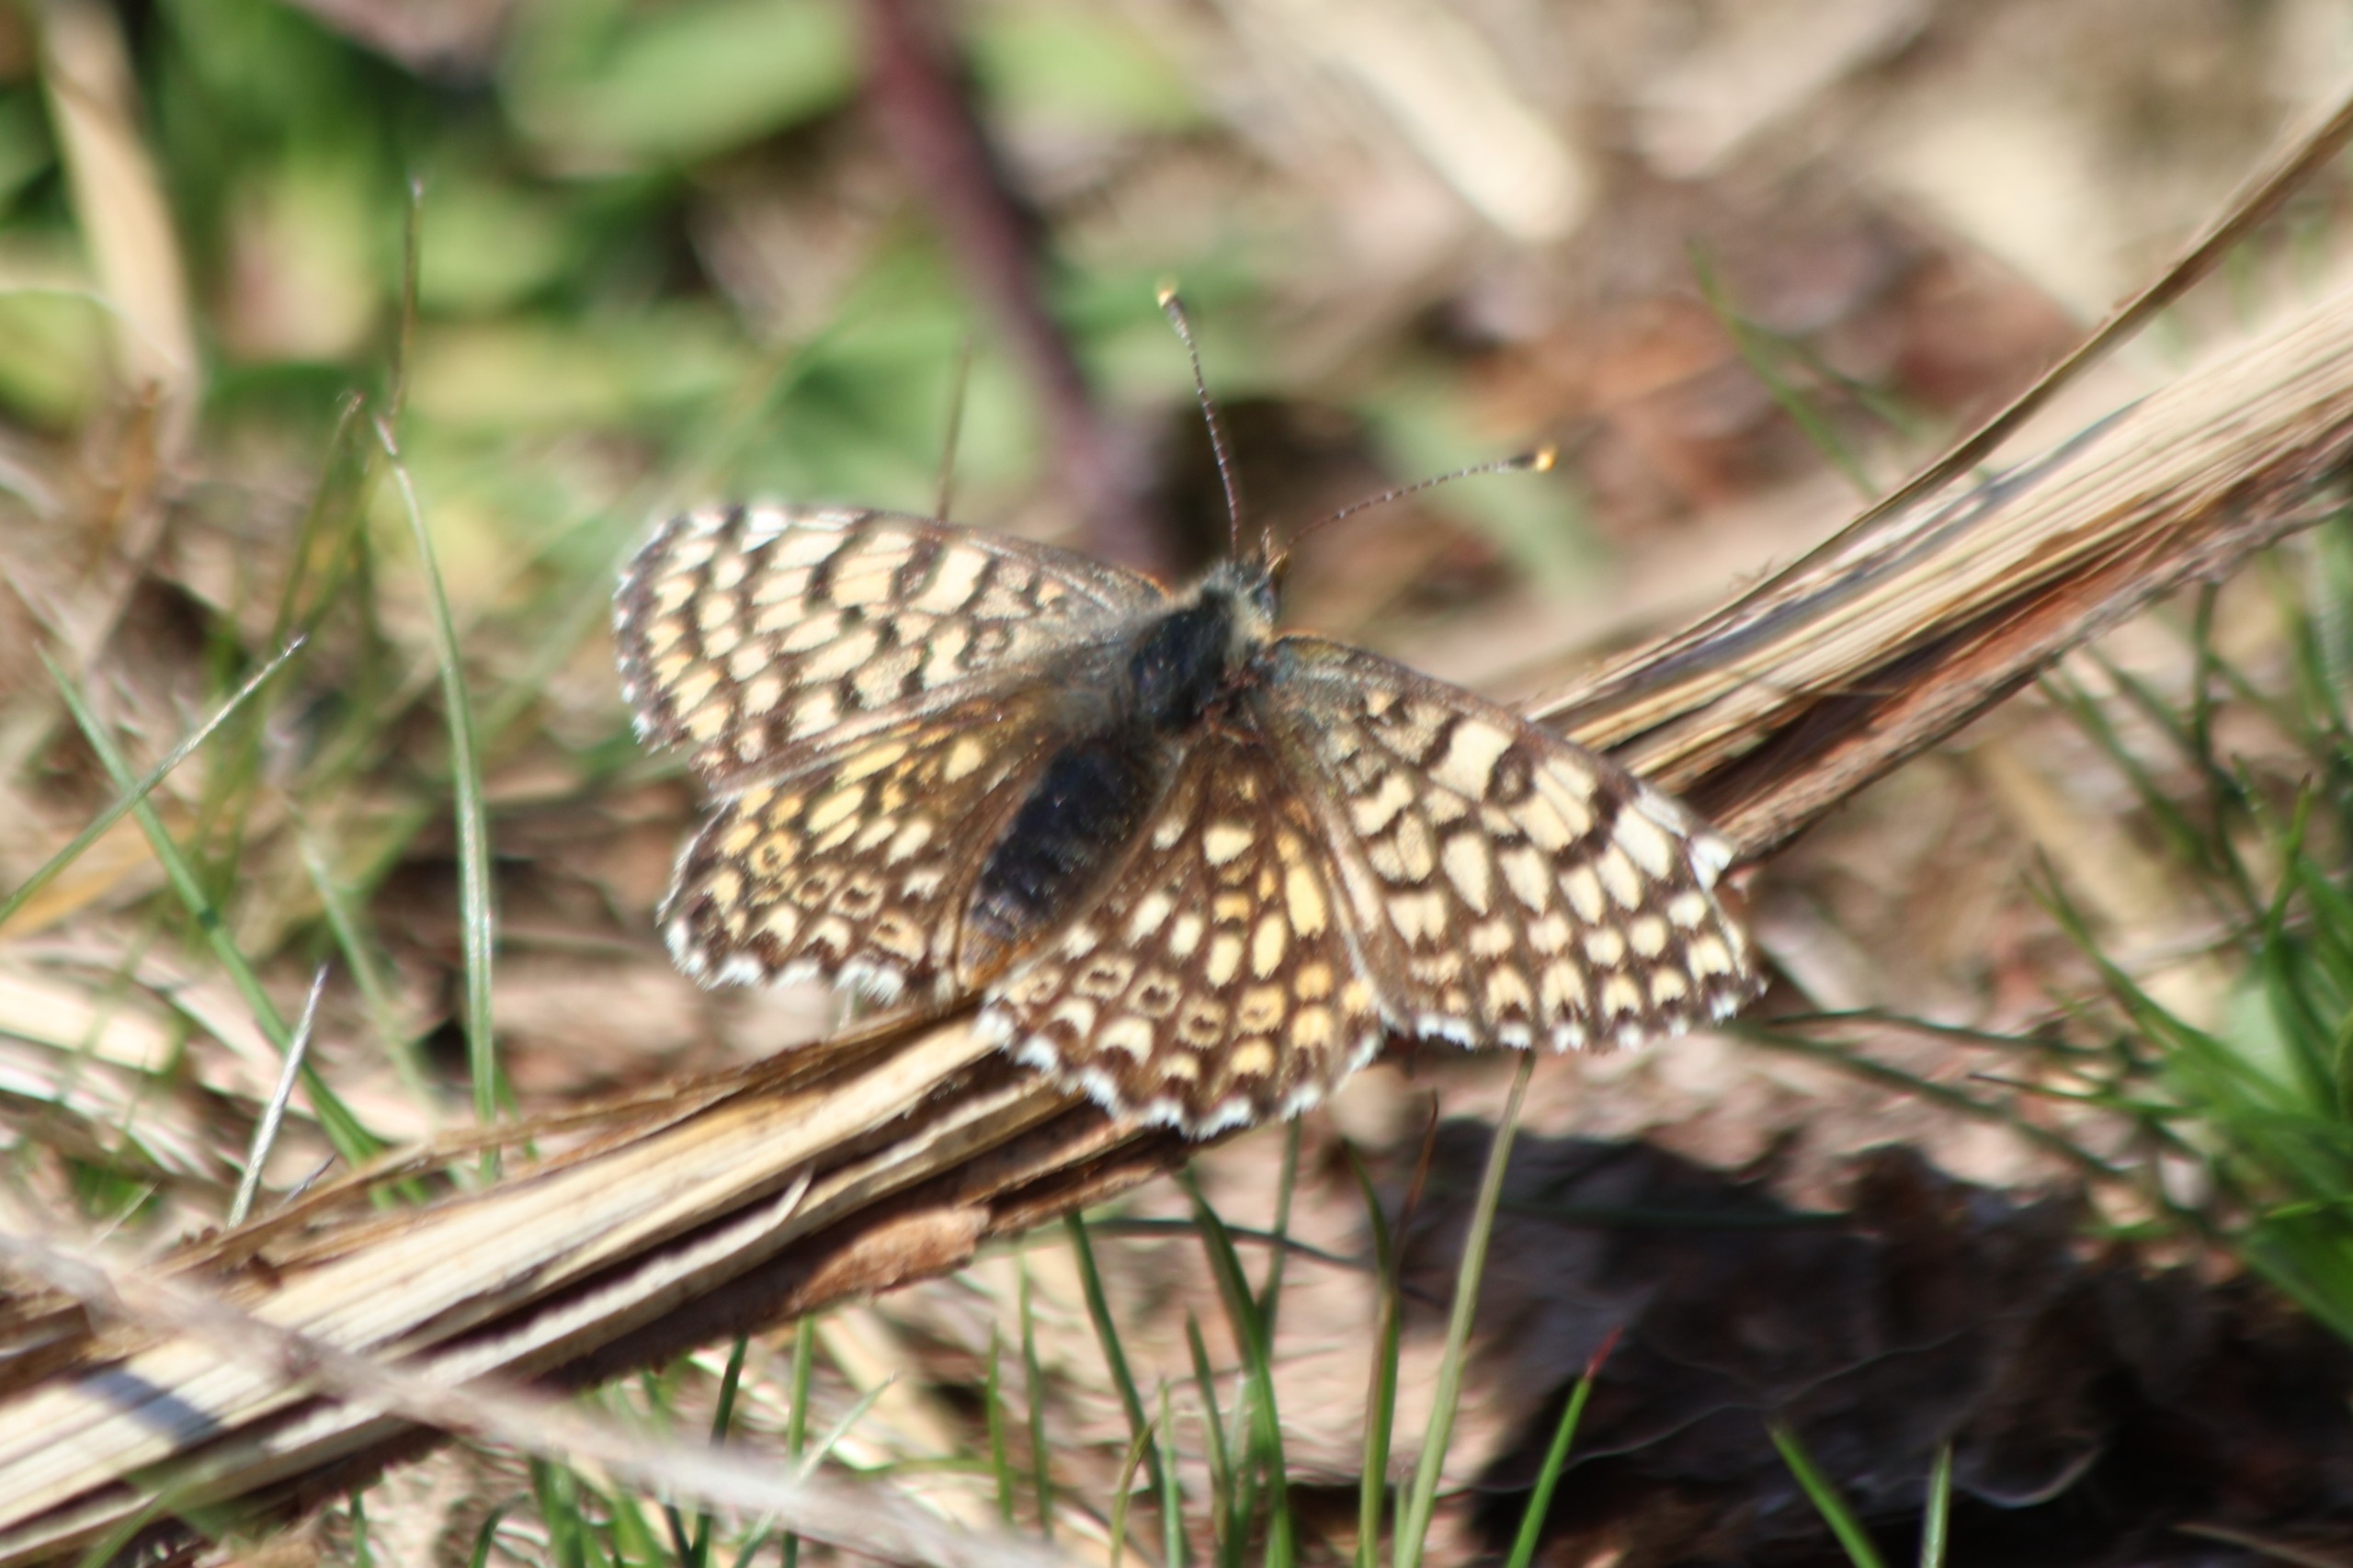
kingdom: Animalia
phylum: Arthropoda
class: Insecta
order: Lepidoptera
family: Nymphalidae
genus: Melitaea
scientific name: Melitaea cinxia
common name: Okkergul pletvinge
